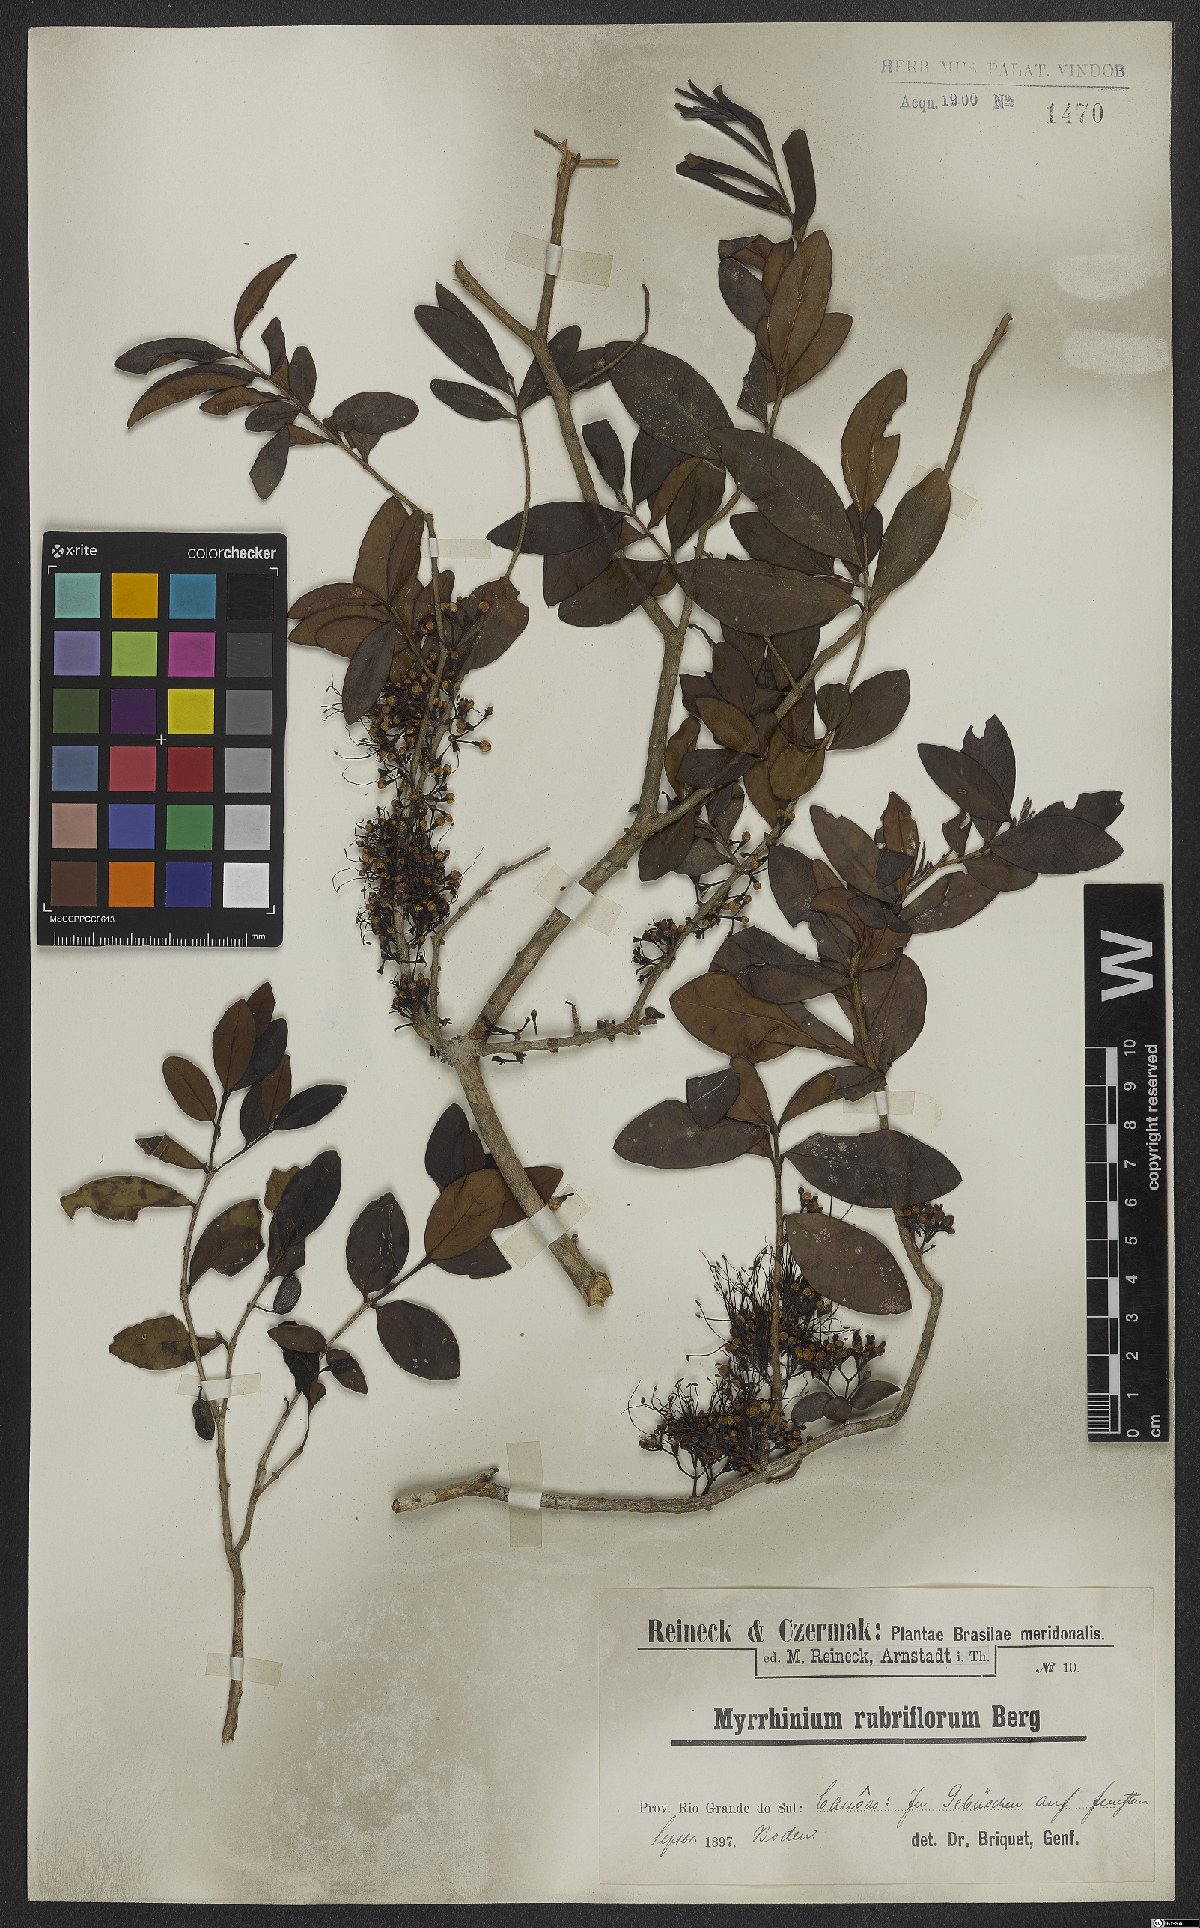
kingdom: Plantae
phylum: Tracheophyta
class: Magnoliopsida
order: Myrtales
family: Myrtaceae
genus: Myrrhinium
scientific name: Myrrhinium atropurpureum
